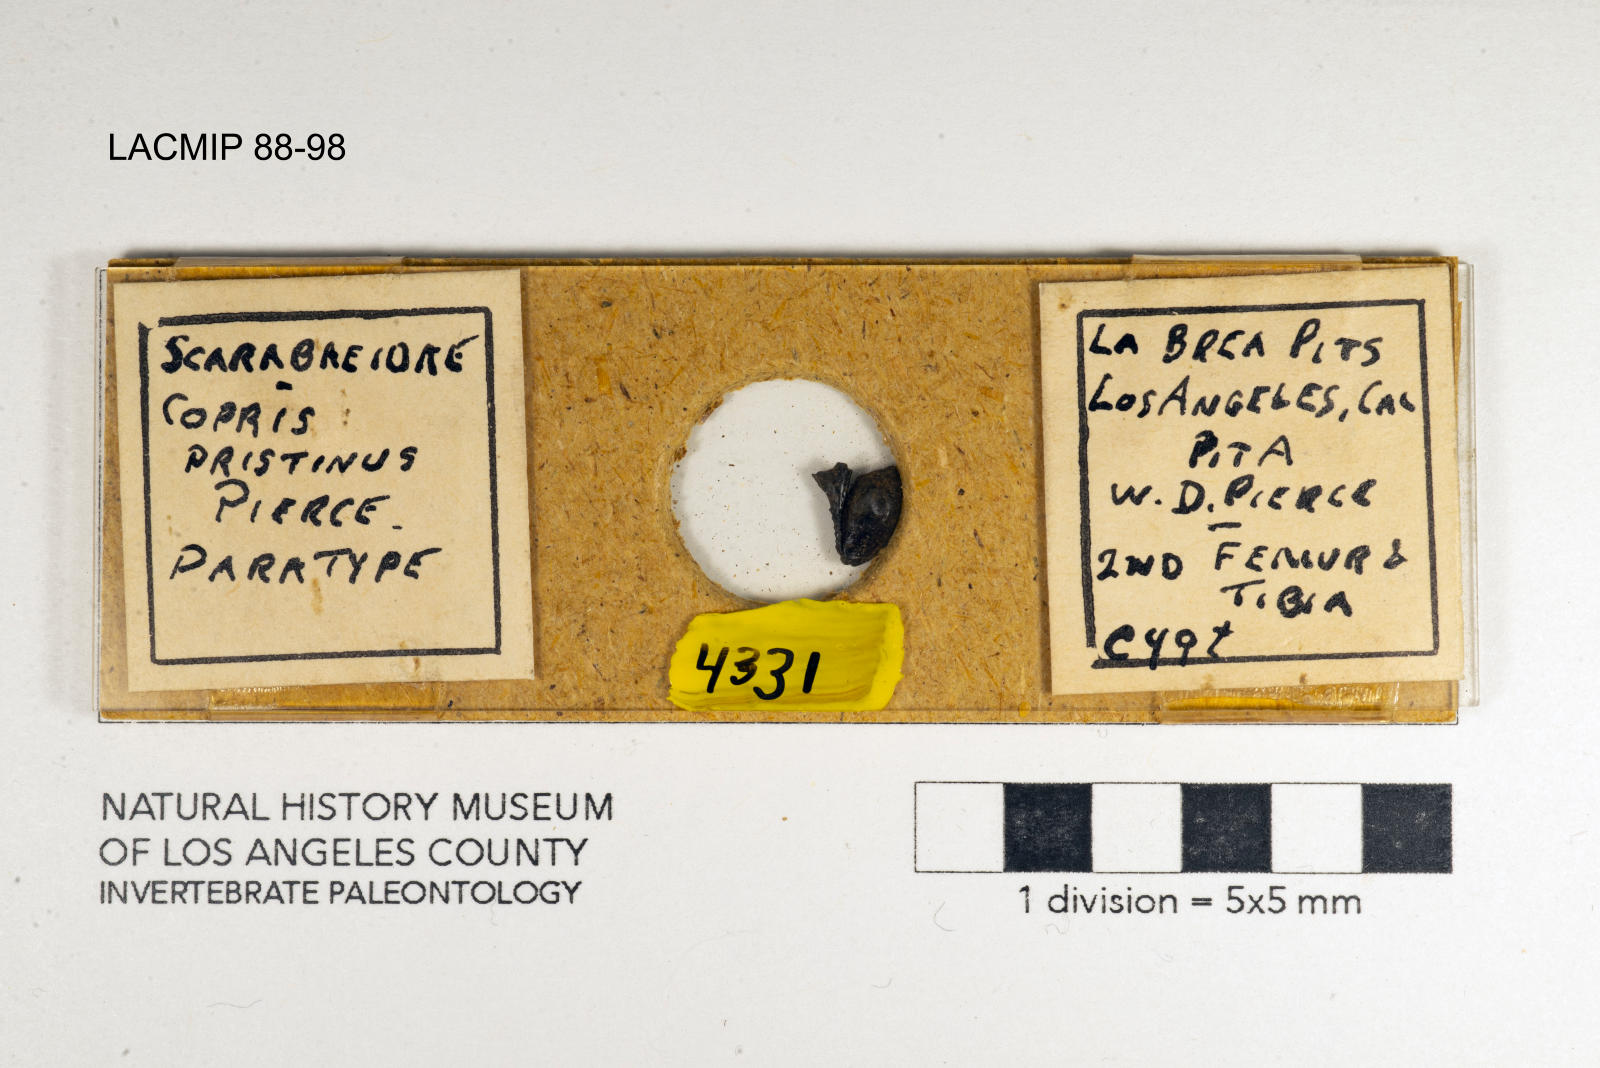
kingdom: Animalia
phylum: Arthropoda
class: Insecta
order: Coleoptera
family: Scarabaeidae
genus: Copris
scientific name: Copris pristinus
